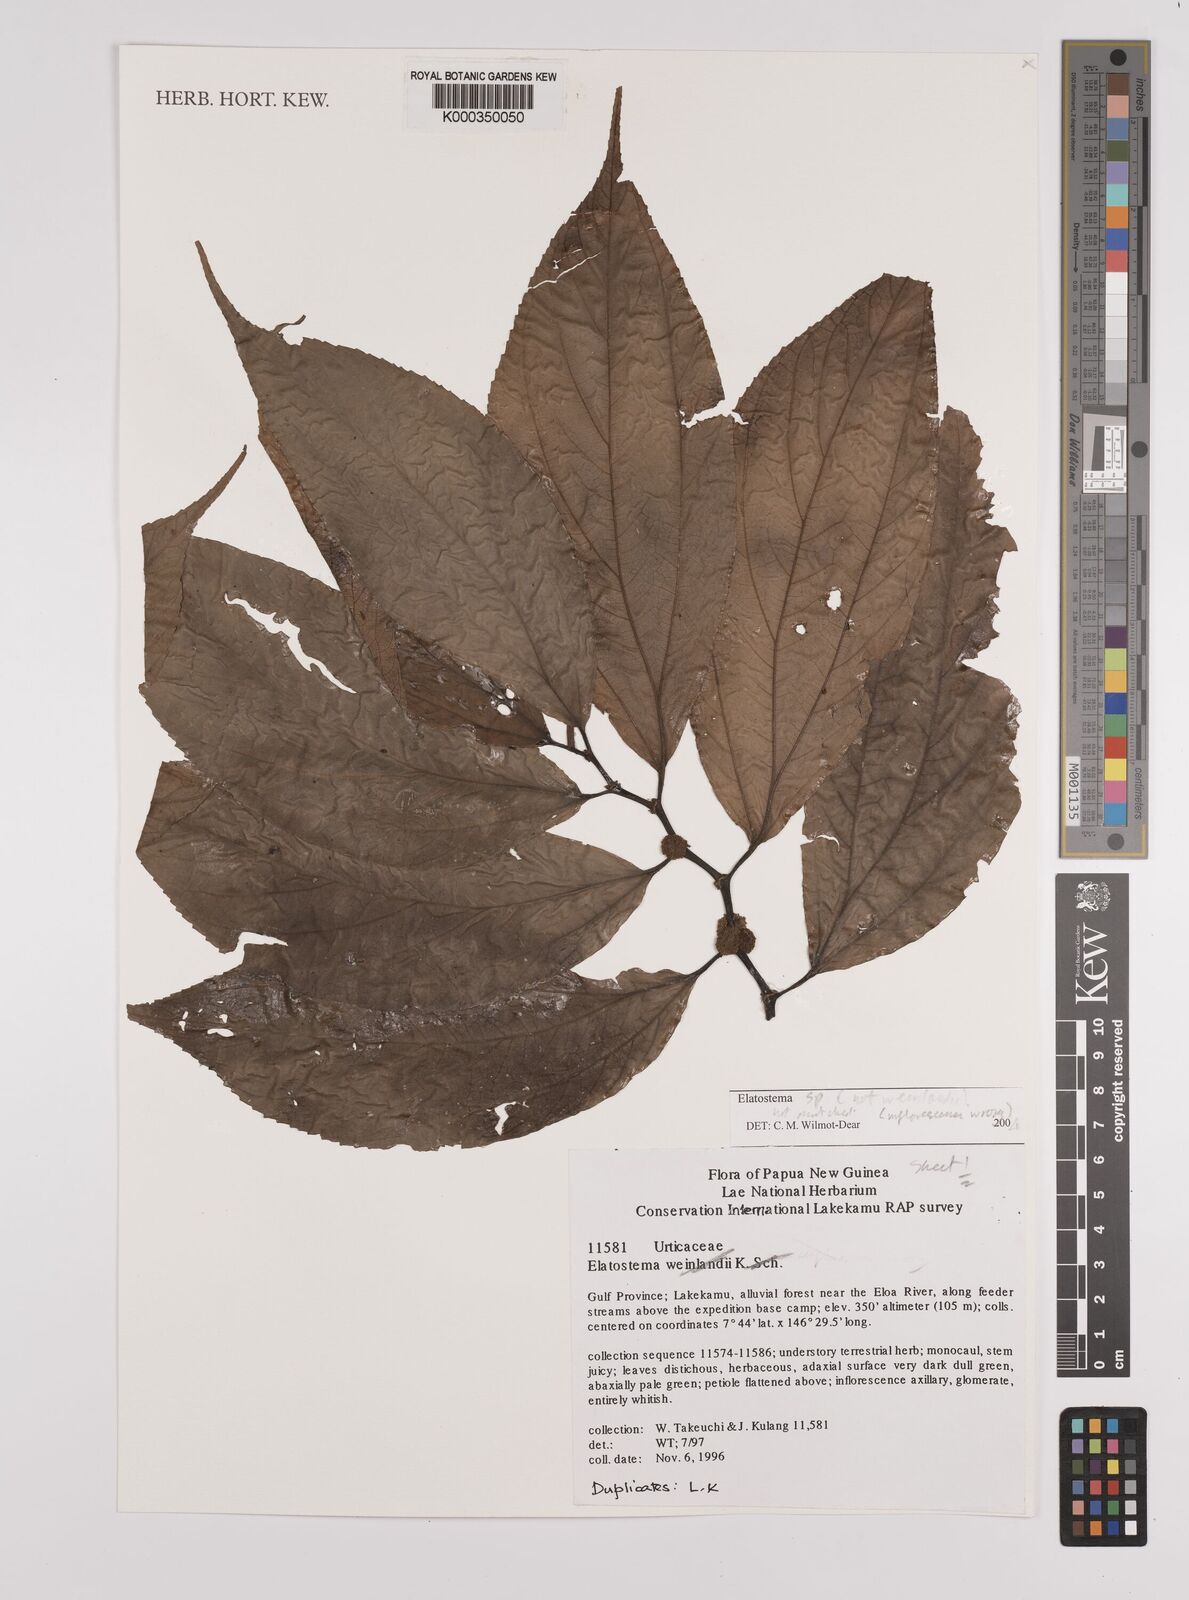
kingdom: Plantae
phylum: Tracheophyta
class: Magnoliopsida
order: Rosales
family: Urticaceae
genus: Elatostema
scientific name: Elatostema
